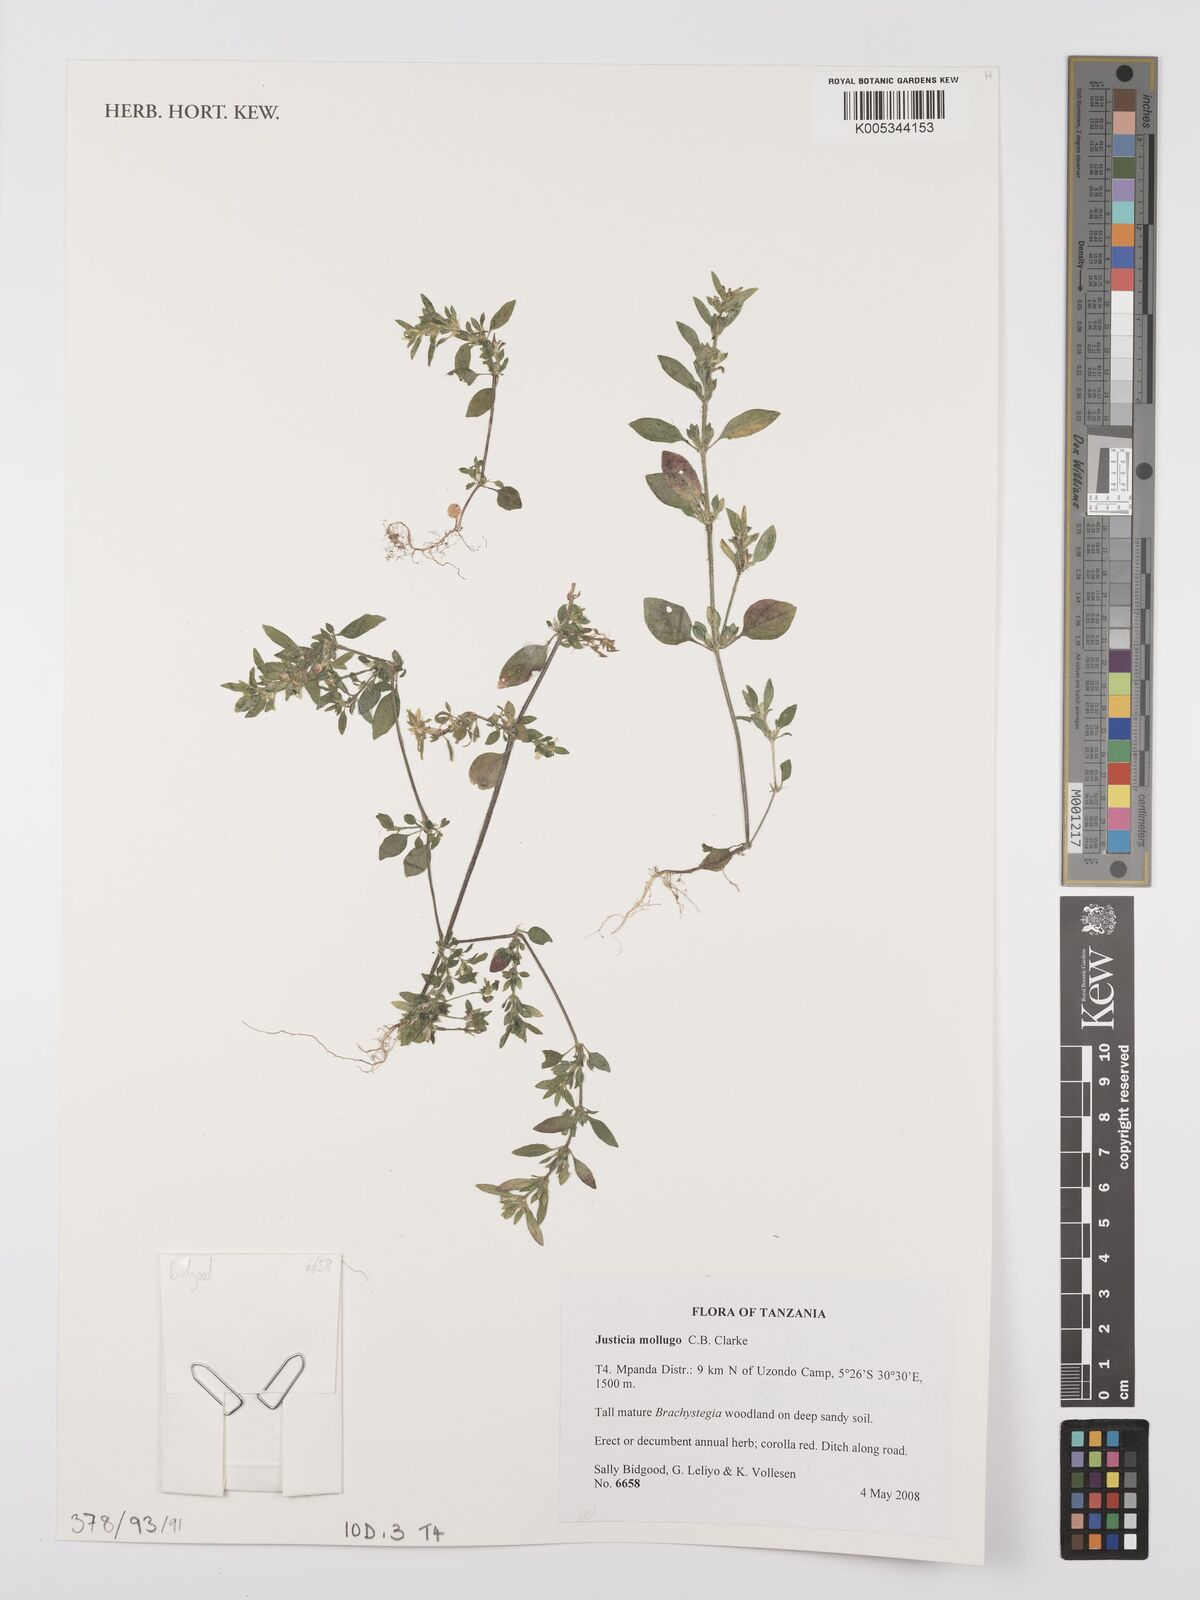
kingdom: Plantae
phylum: Tracheophyta
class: Magnoliopsida
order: Lamiales
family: Acanthaceae
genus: Justicia
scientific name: Justicia mollugo
